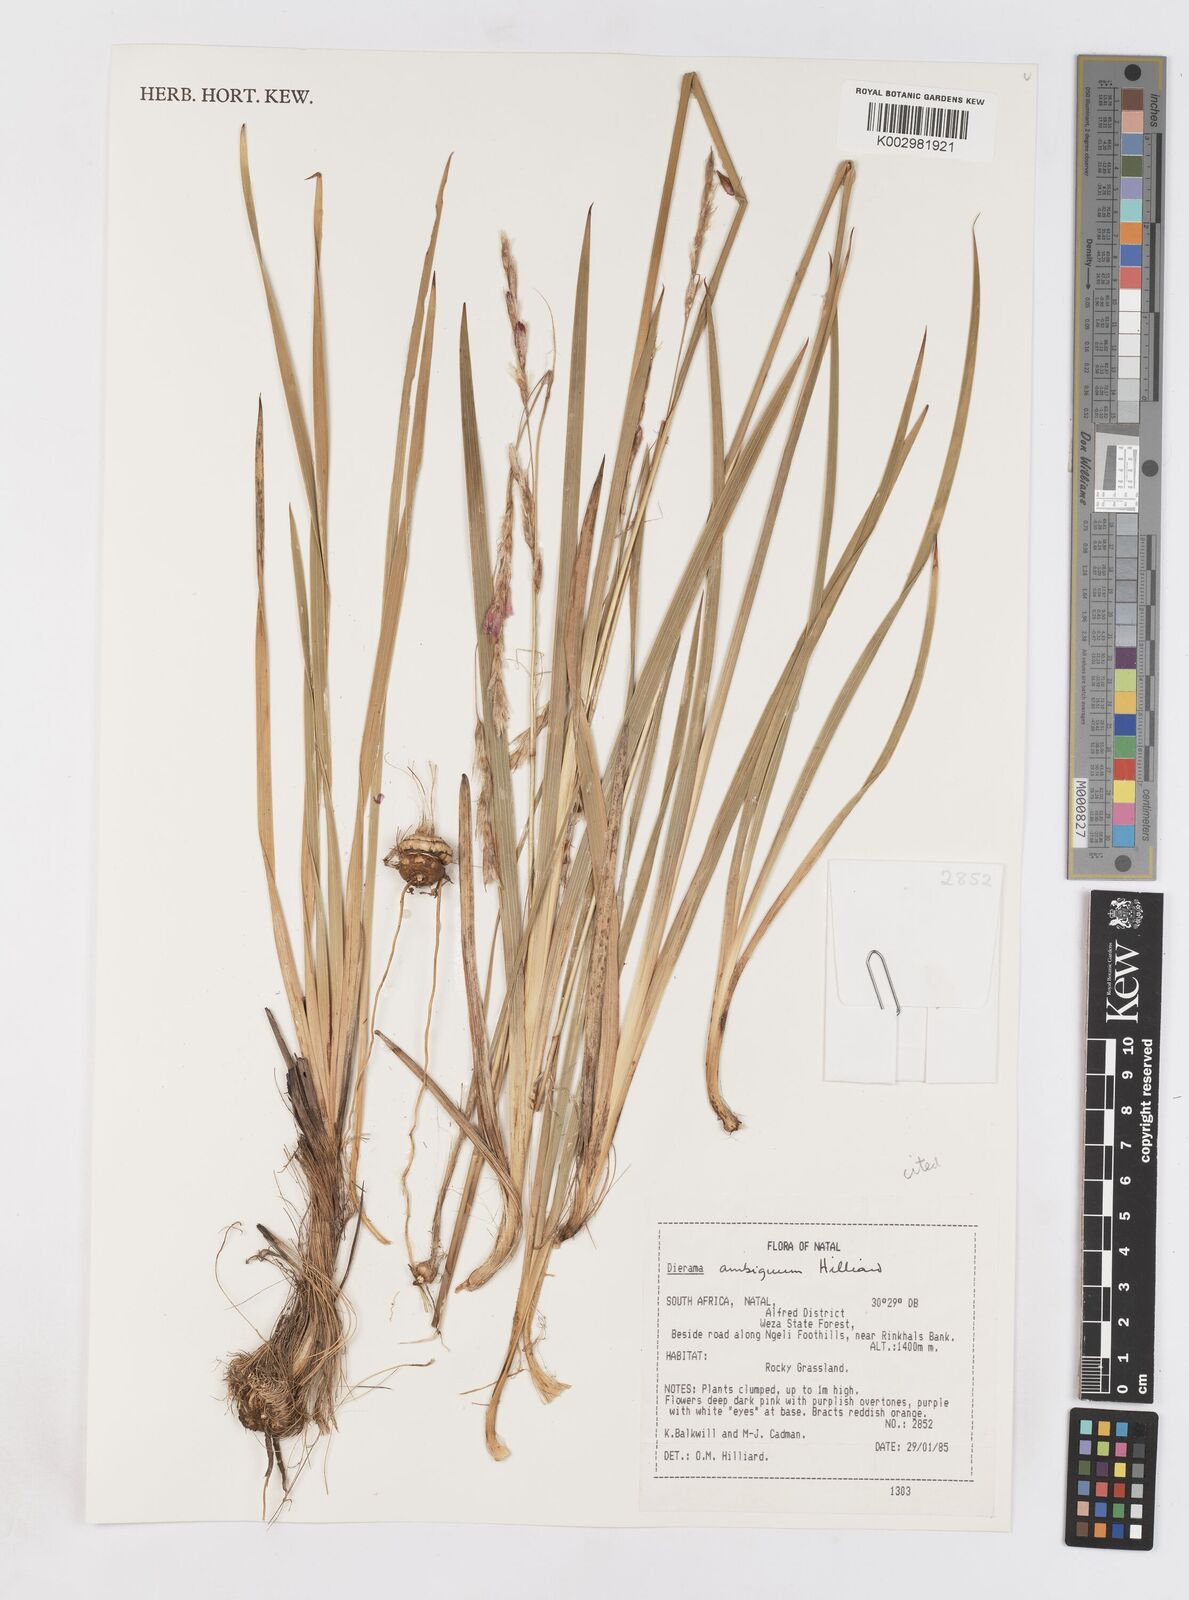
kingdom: Plantae
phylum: Tracheophyta
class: Liliopsida
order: Asparagales
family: Iridaceae
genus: Dierama
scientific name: Dierama ambiguum
